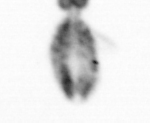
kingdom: Animalia
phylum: Arthropoda
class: Copepoda
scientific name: Copepoda
